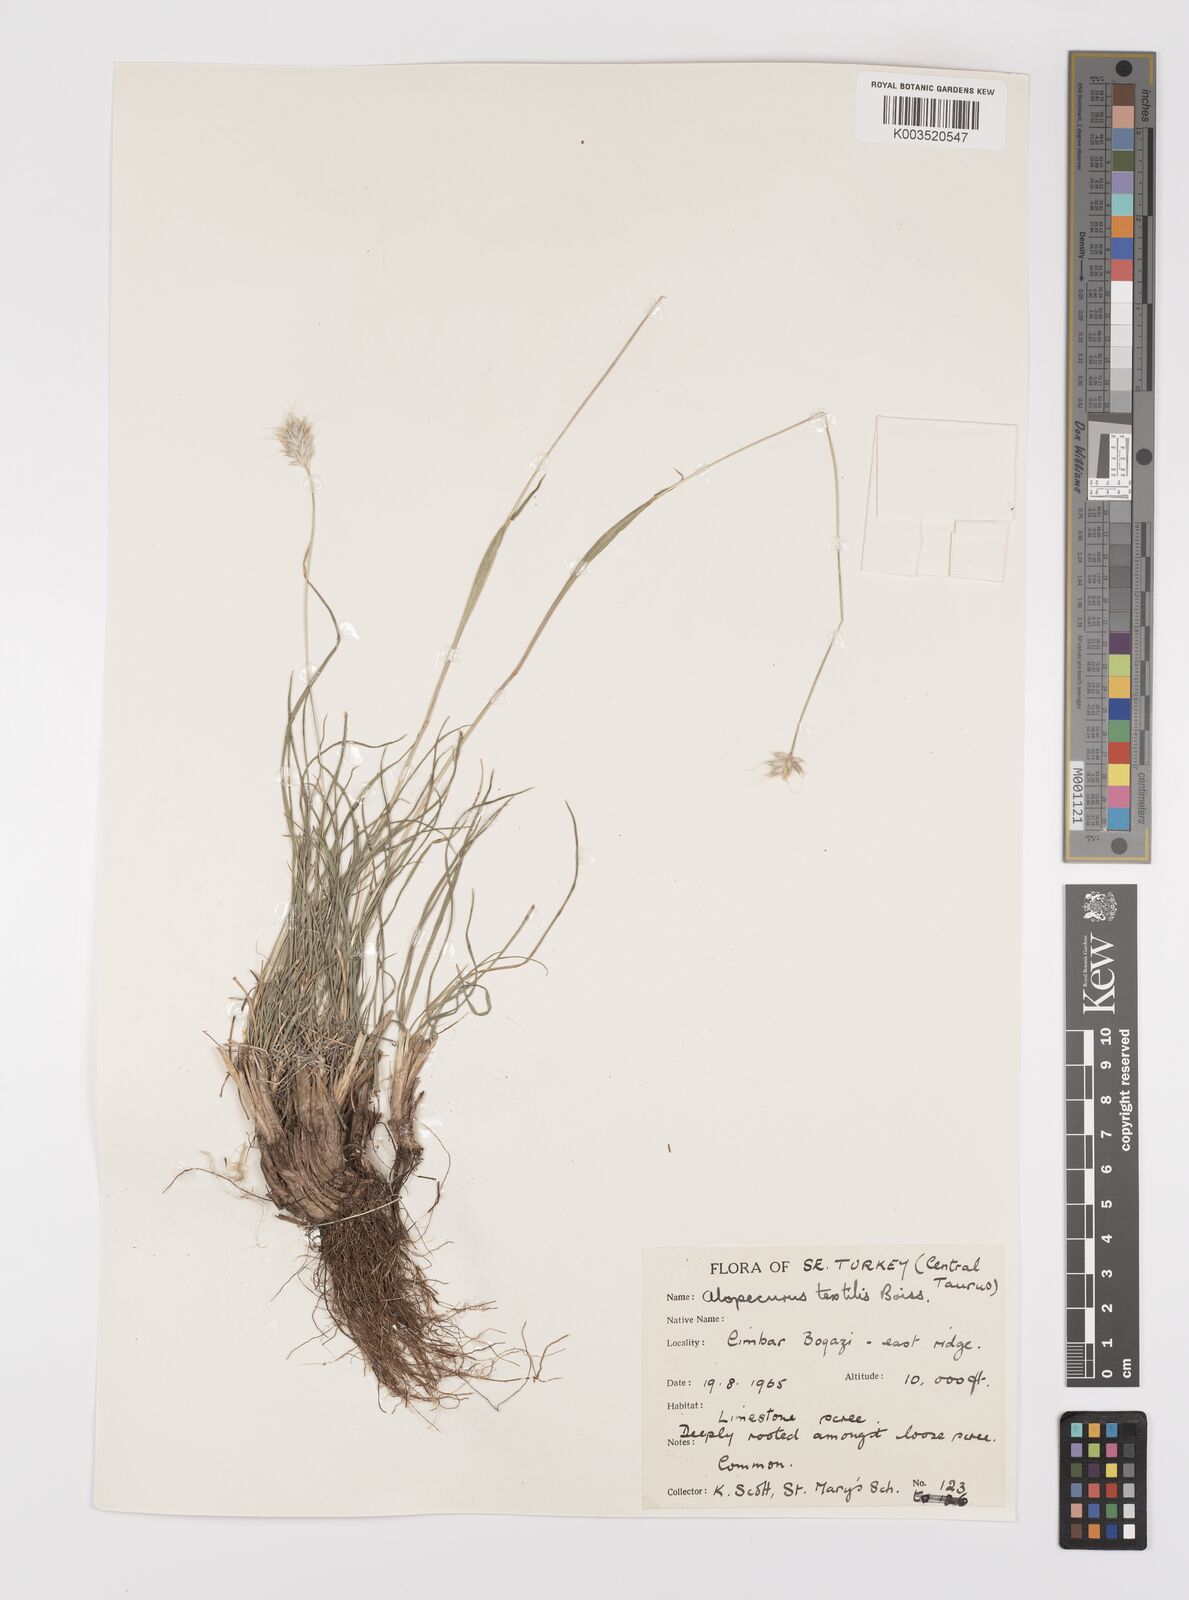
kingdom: Plantae
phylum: Tracheophyta
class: Liliopsida
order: Poales
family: Poaceae
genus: Alopecurus
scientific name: Alopecurus textilis
